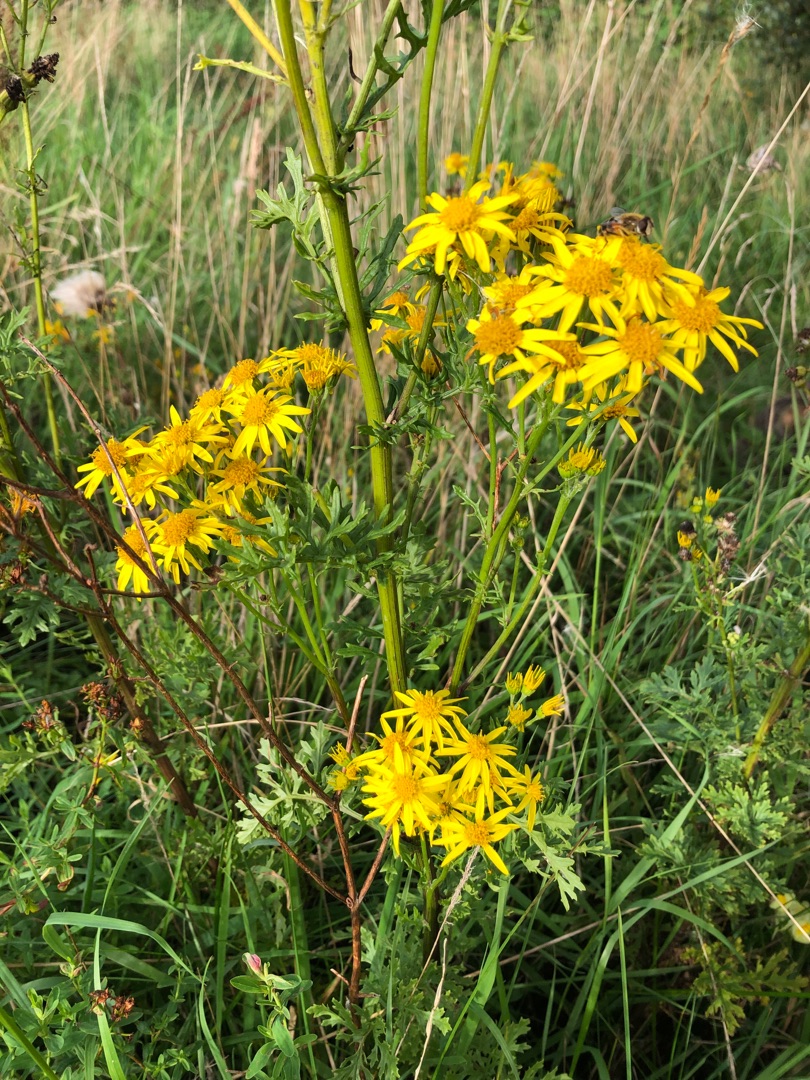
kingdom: Plantae
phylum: Tracheophyta
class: Magnoliopsida
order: Asterales
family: Asteraceae
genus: Jacobaea
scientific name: Jacobaea vulgaris
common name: Eng-brandbæger
